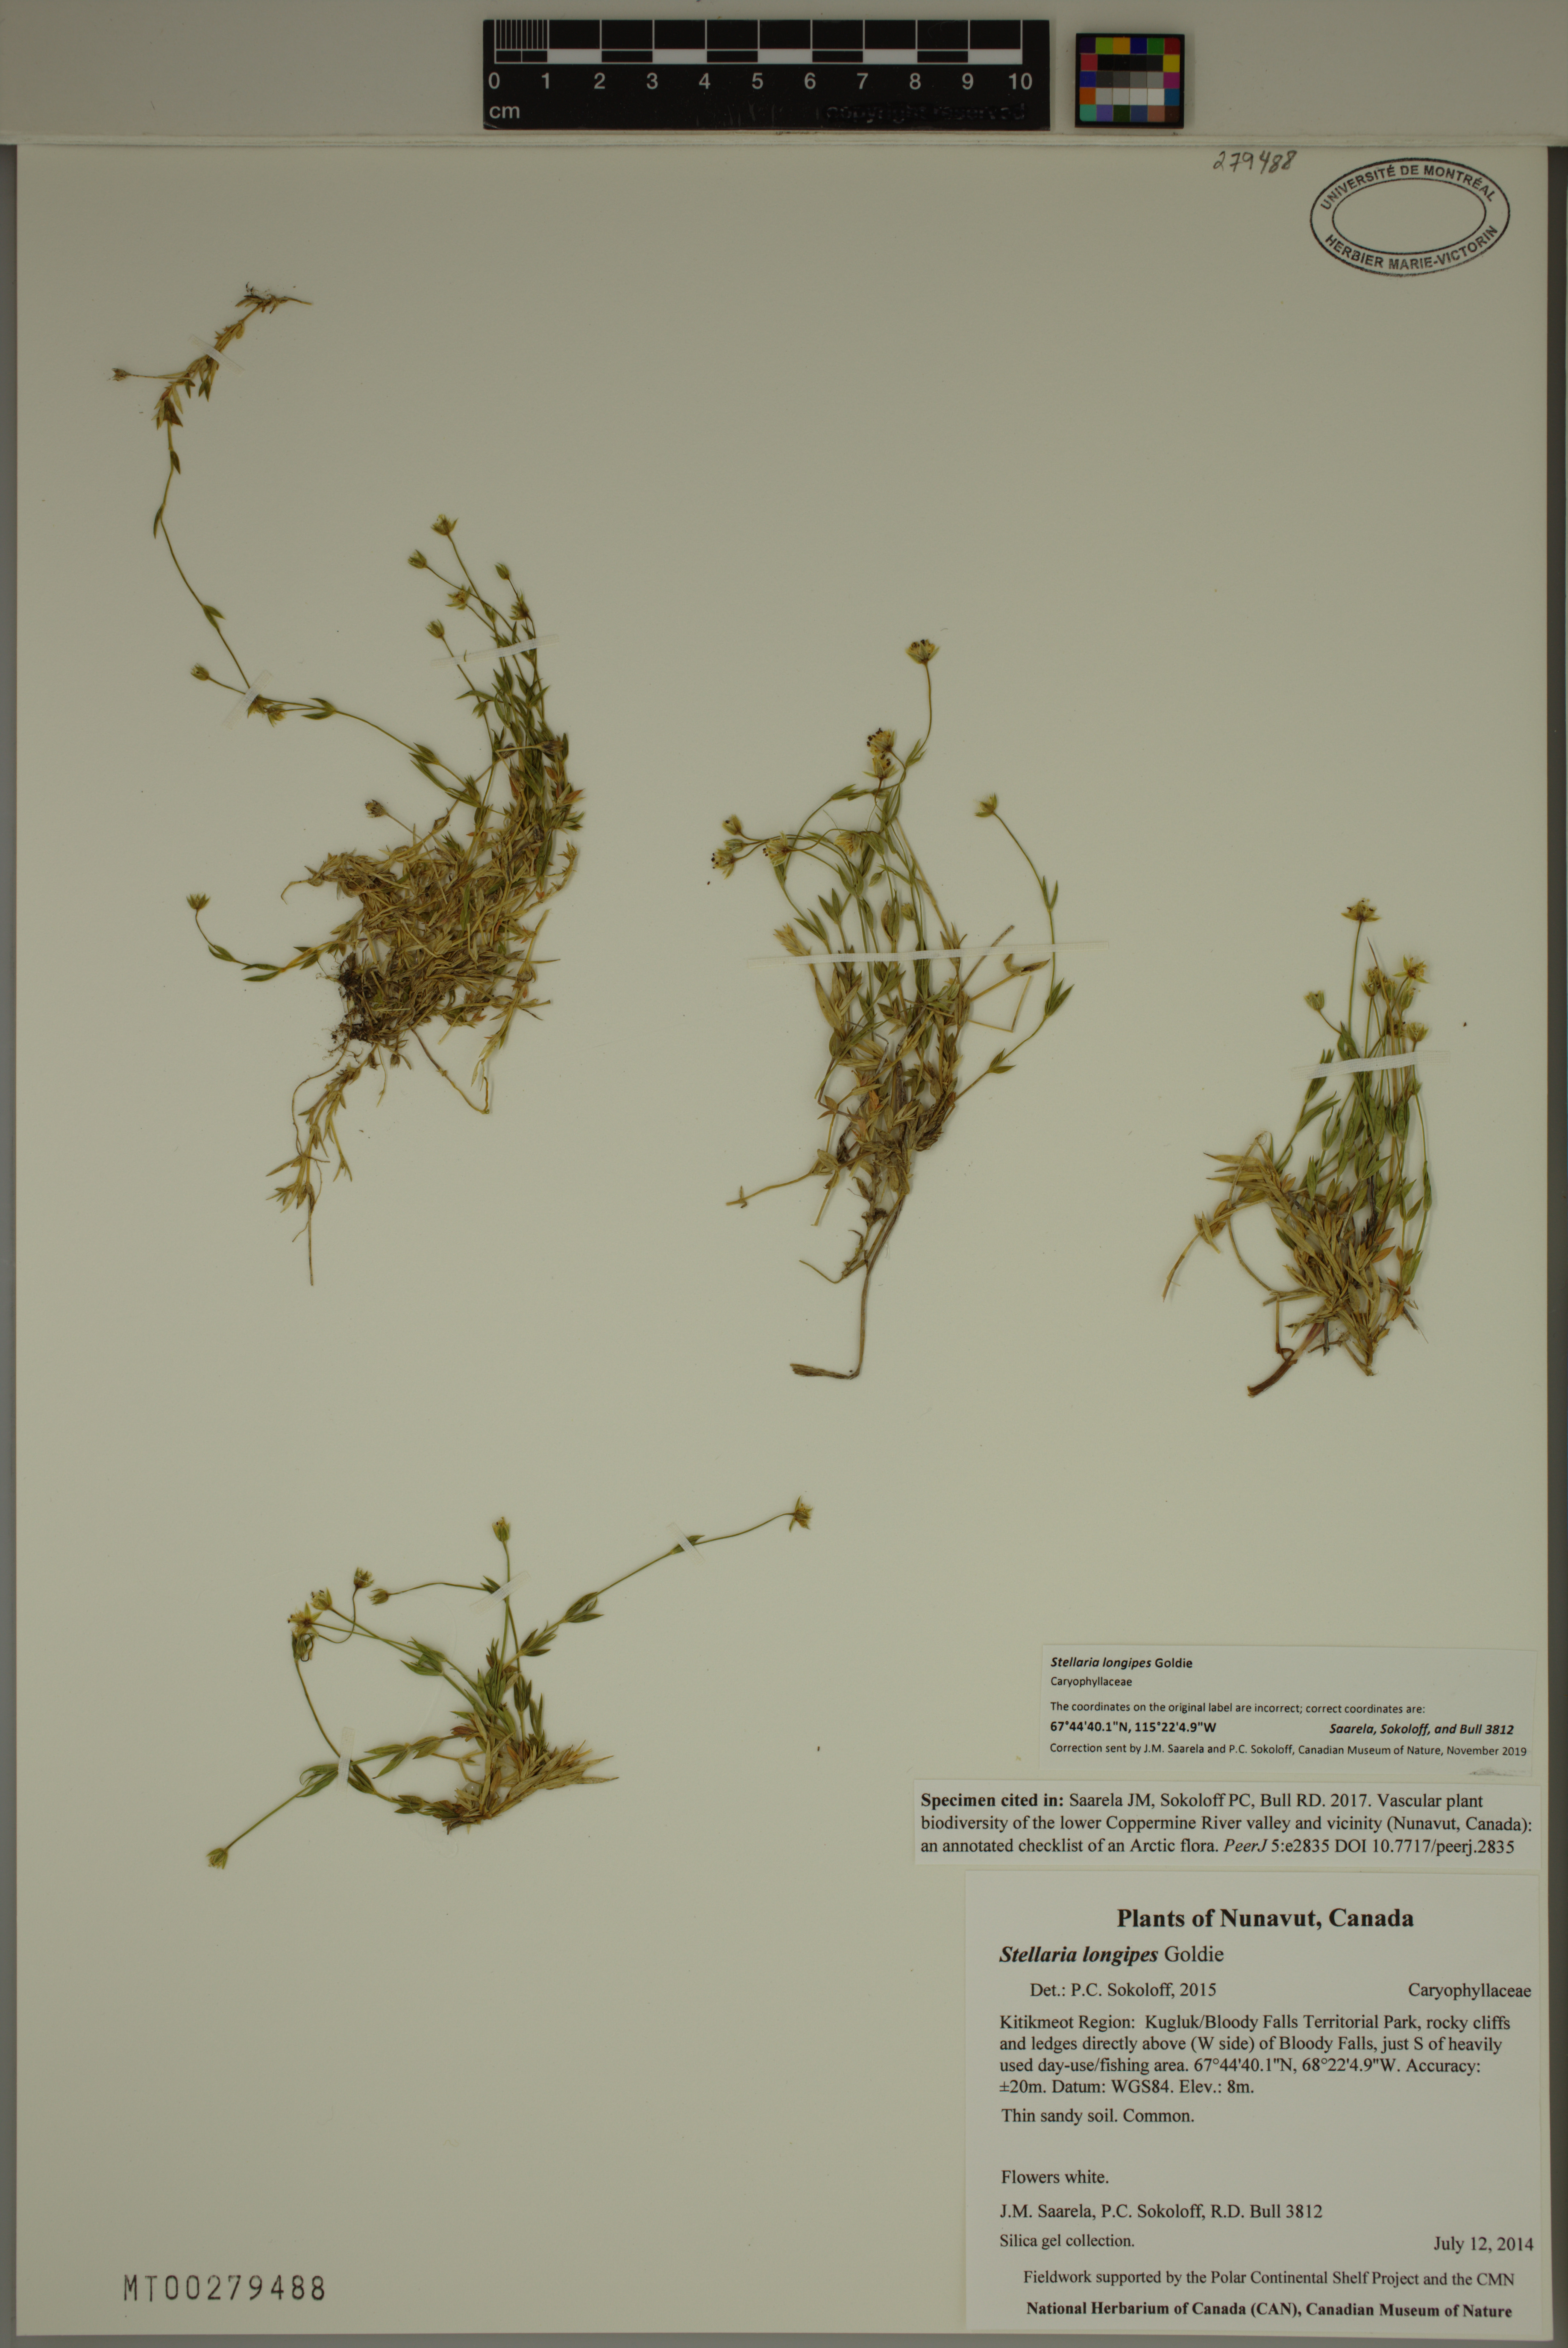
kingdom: Plantae
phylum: Tracheophyta
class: Magnoliopsida
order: Caryophyllales
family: Caryophyllaceae
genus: Stellaria
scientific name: Stellaria longipes
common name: Goldie's starwort
